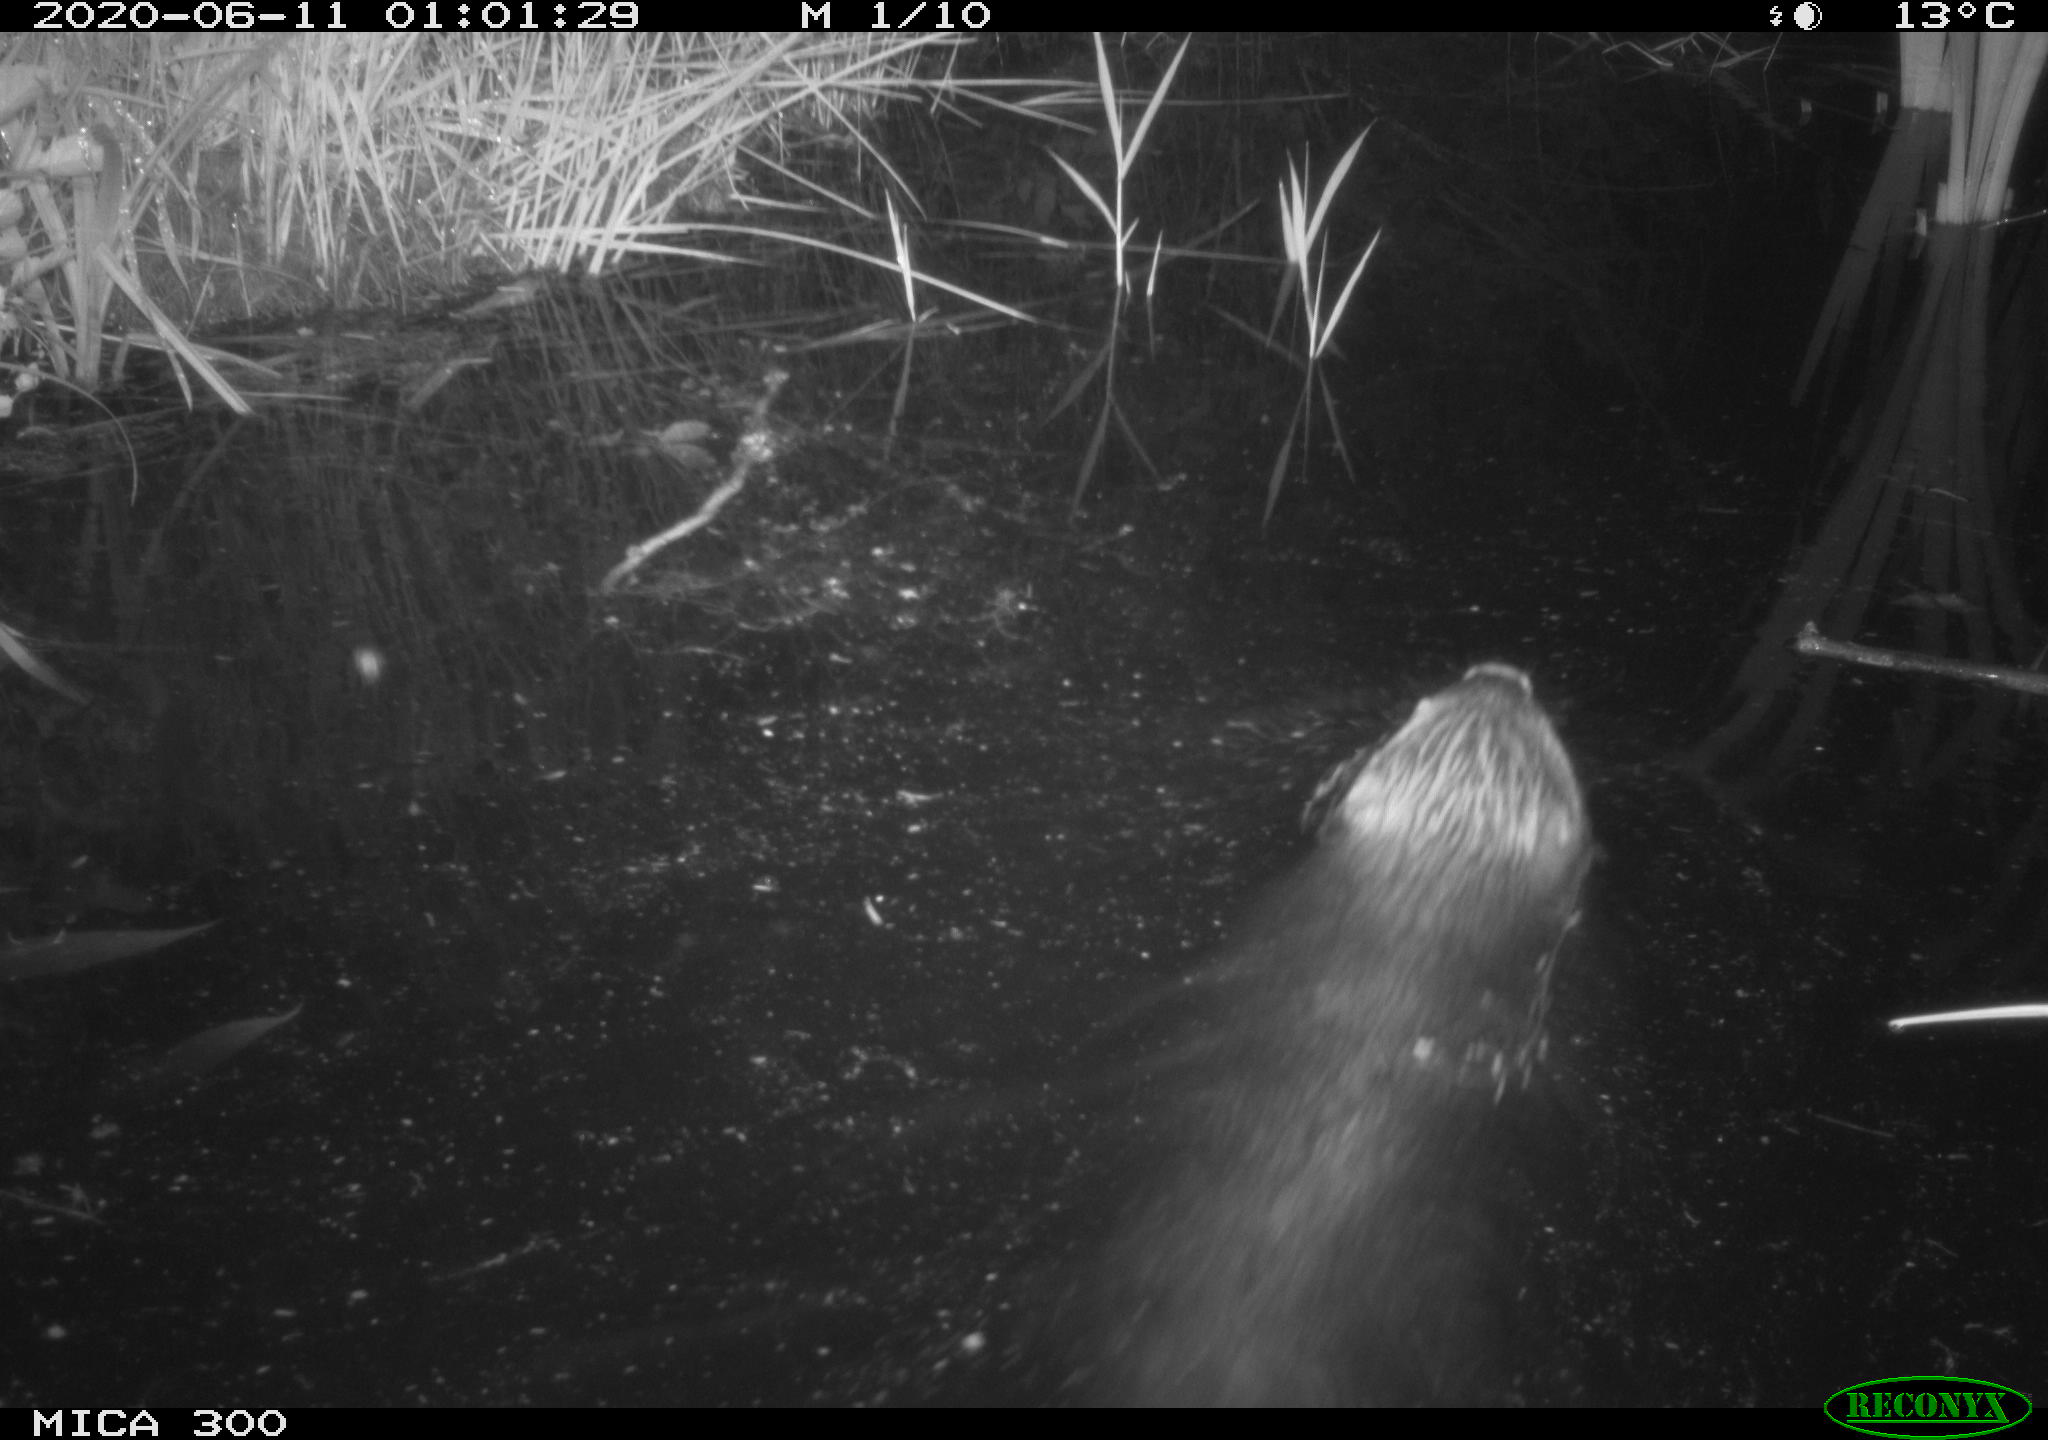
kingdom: Animalia
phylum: Chordata
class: Mammalia
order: Rodentia
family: Castoridae
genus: Castor
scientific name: Castor fiber
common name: Eurasian beaver
